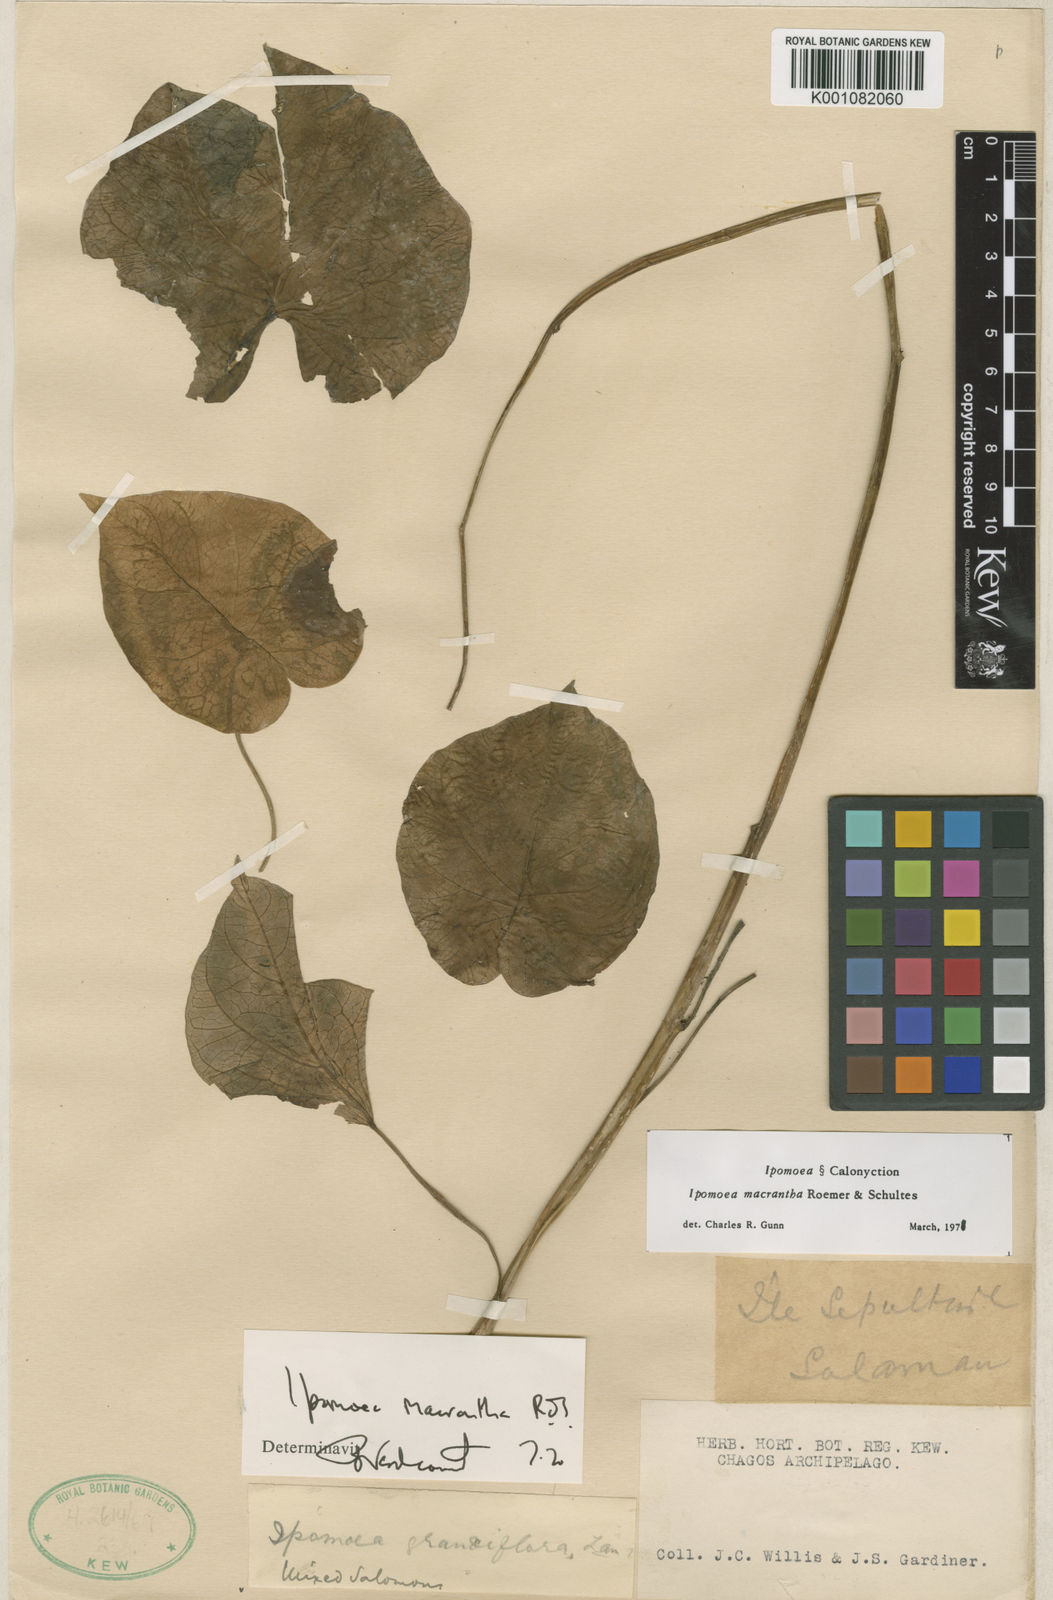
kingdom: Plantae
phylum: Tracheophyta
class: Magnoliopsida
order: Solanales
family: Convolvulaceae
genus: Ipomoea
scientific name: Ipomoea violacea
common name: Beach moonflower
